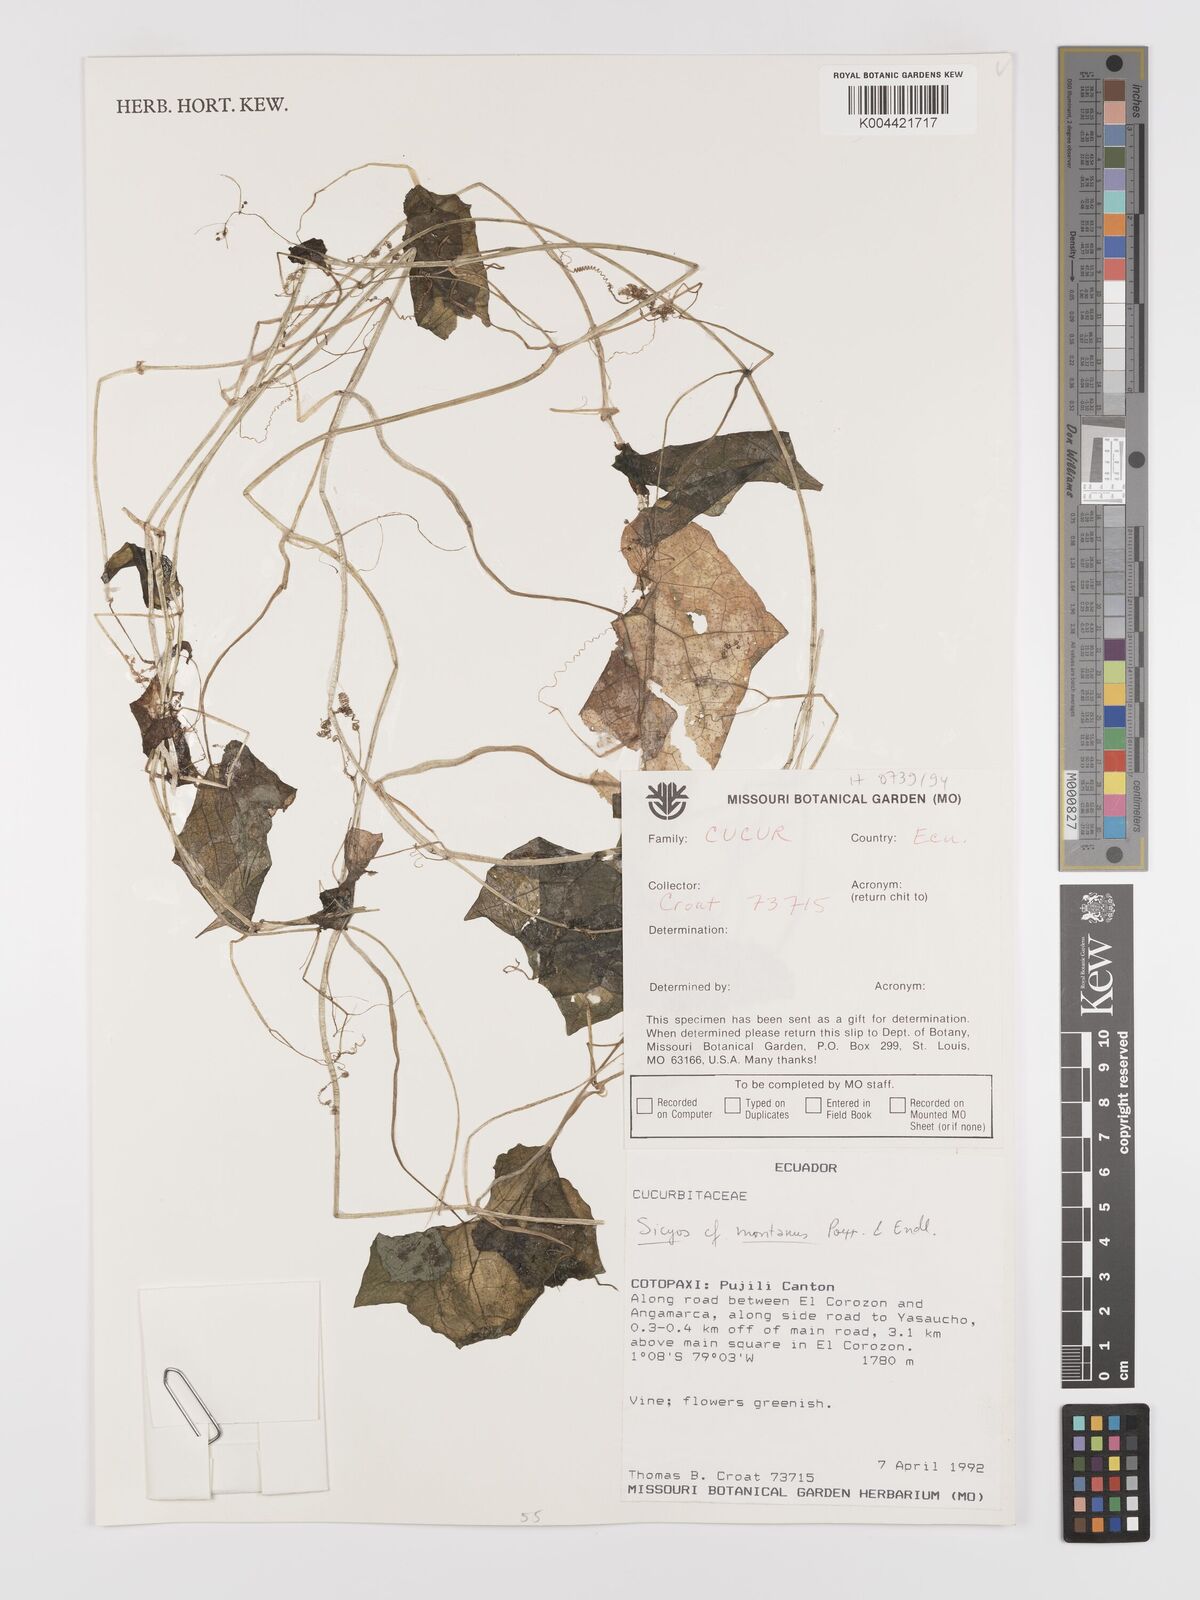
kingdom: Plantae
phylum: Tracheophyta
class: Magnoliopsida
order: Cucurbitales
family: Cucurbitaceae
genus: Sicyos
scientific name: Sicyos
